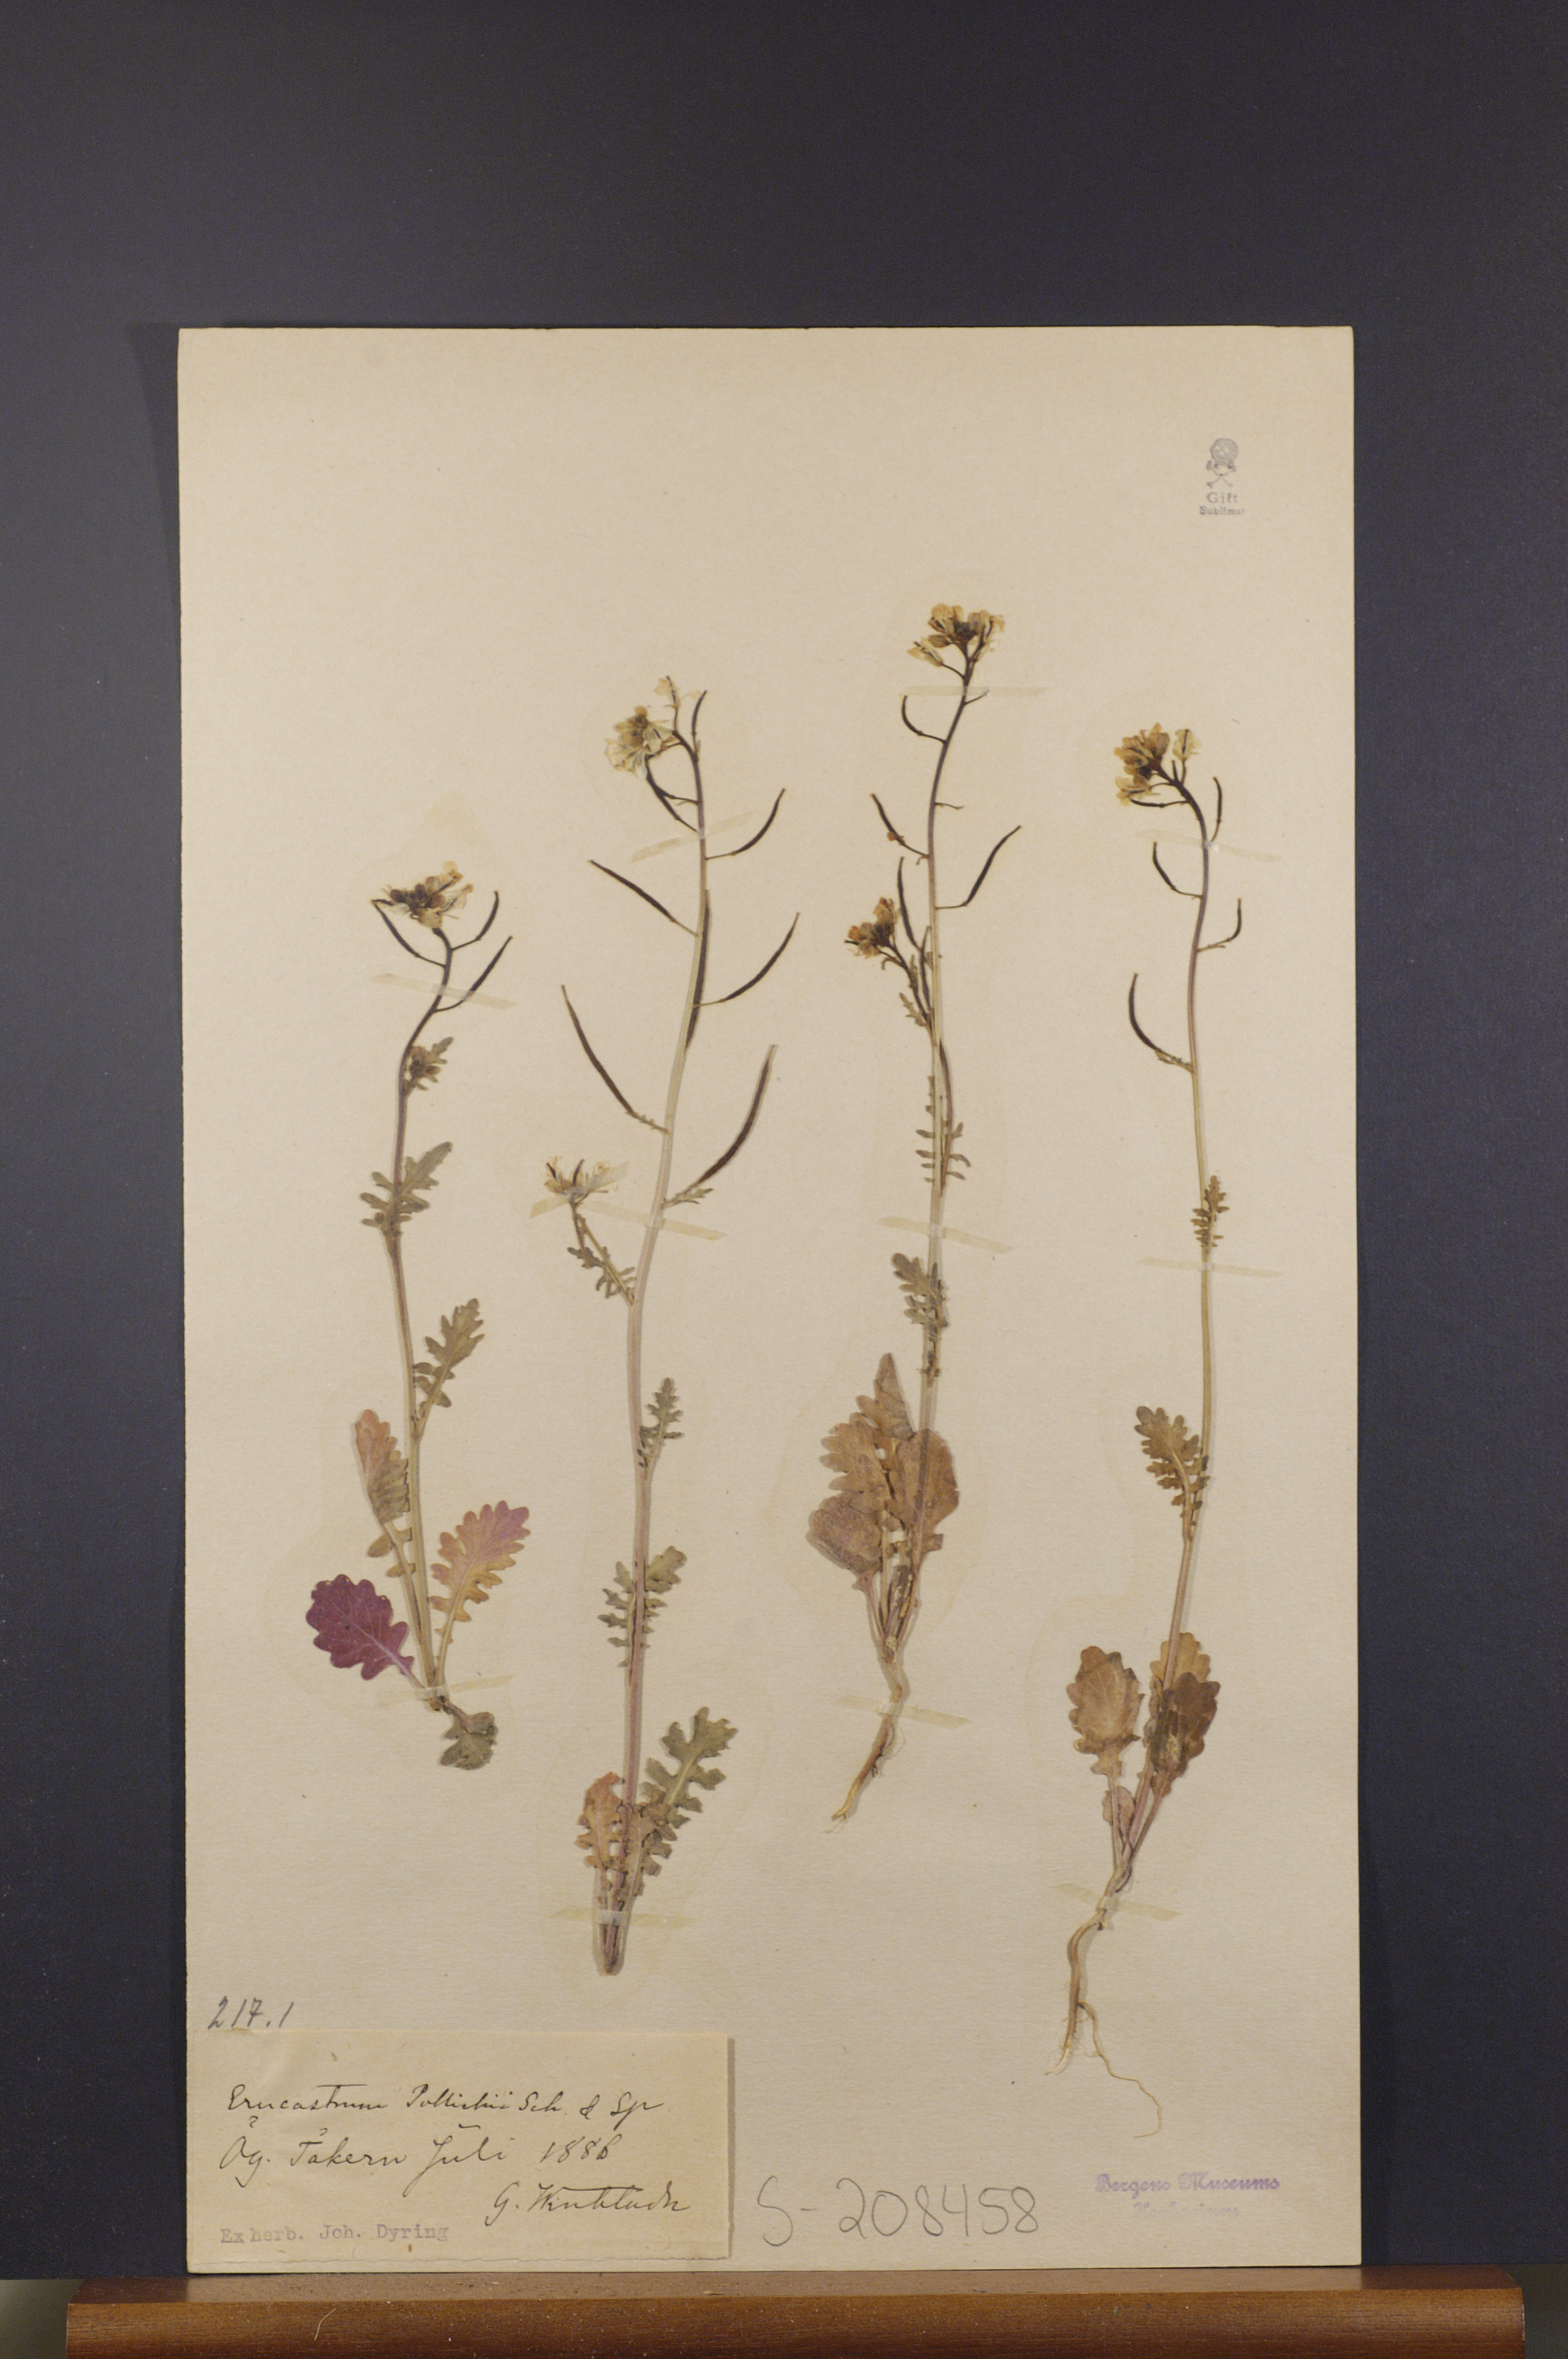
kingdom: Plantae
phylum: Tracheophyta
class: Magnoliopsida
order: Brassicales
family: Brassicaceae
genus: Erucastrum
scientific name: Erucastrum gallicum
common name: Hairy rocket
